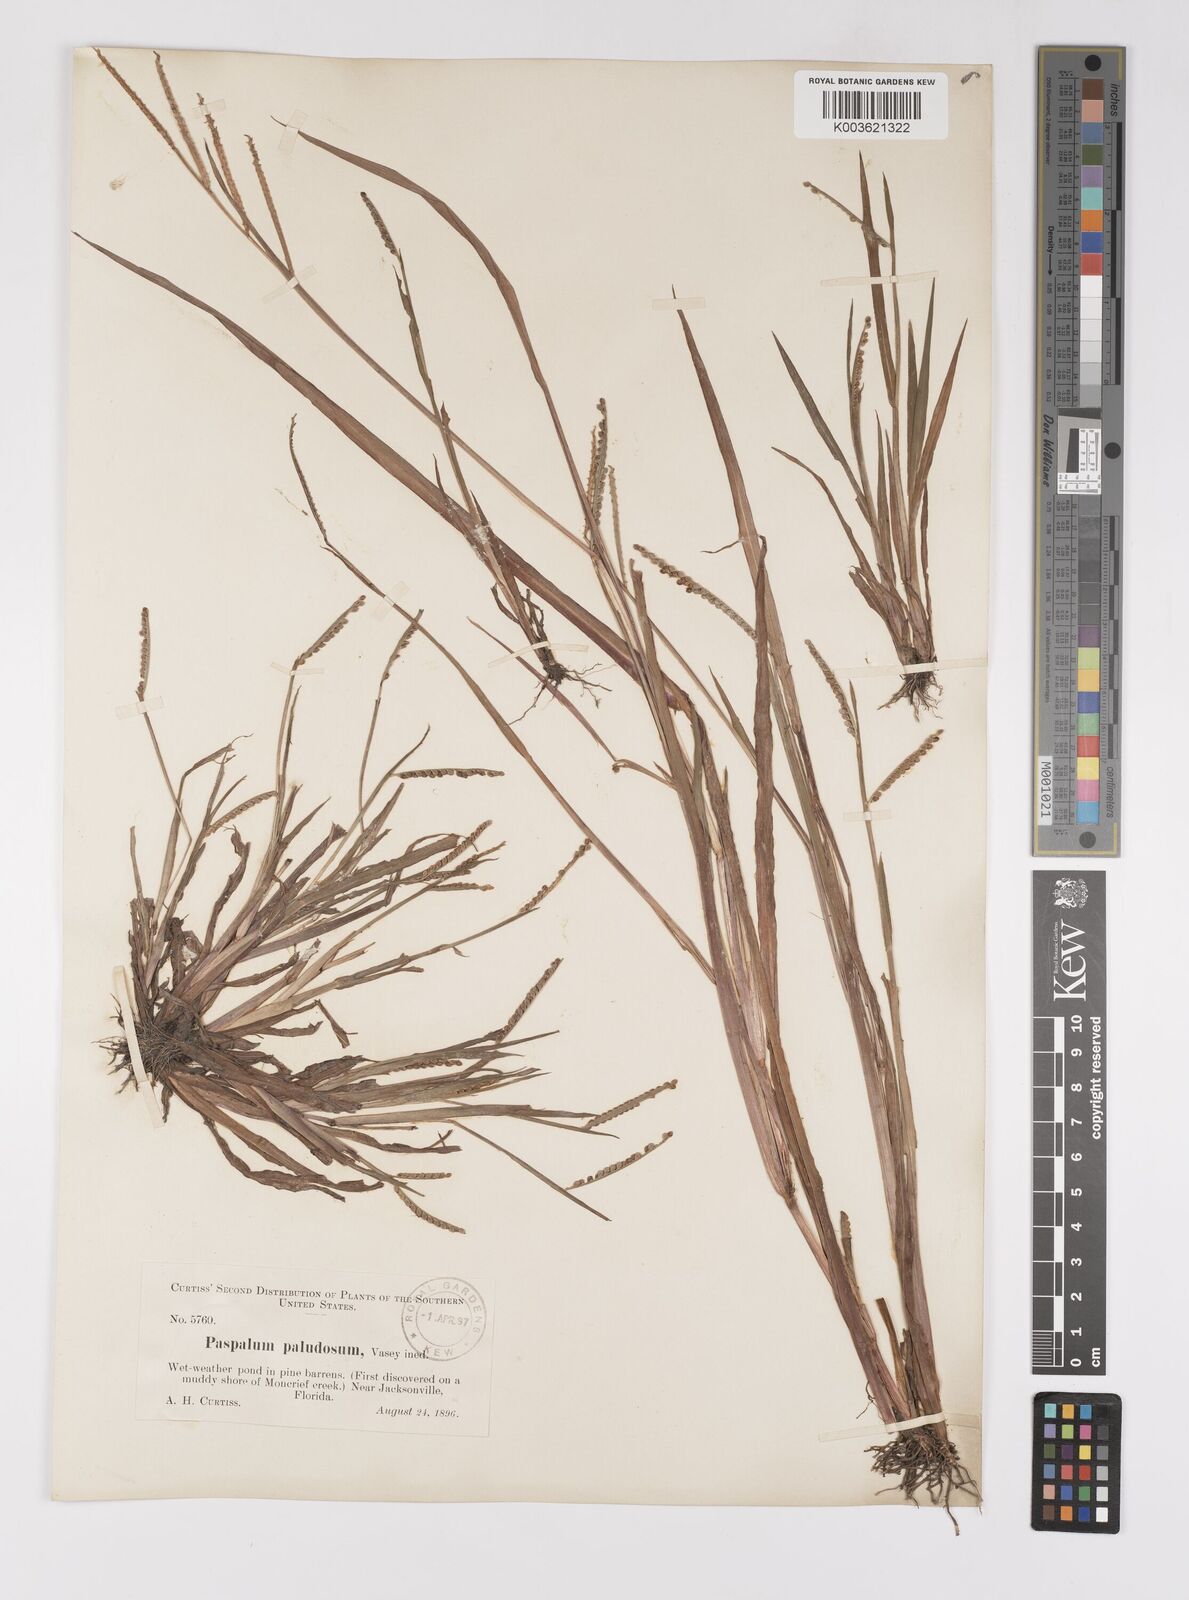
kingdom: Plantae
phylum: Tracheophyta
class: Liliopsida
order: Poales
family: Poaceae
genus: Paspalum
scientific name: Paspalum scrobiculatum
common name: Kodo millet
